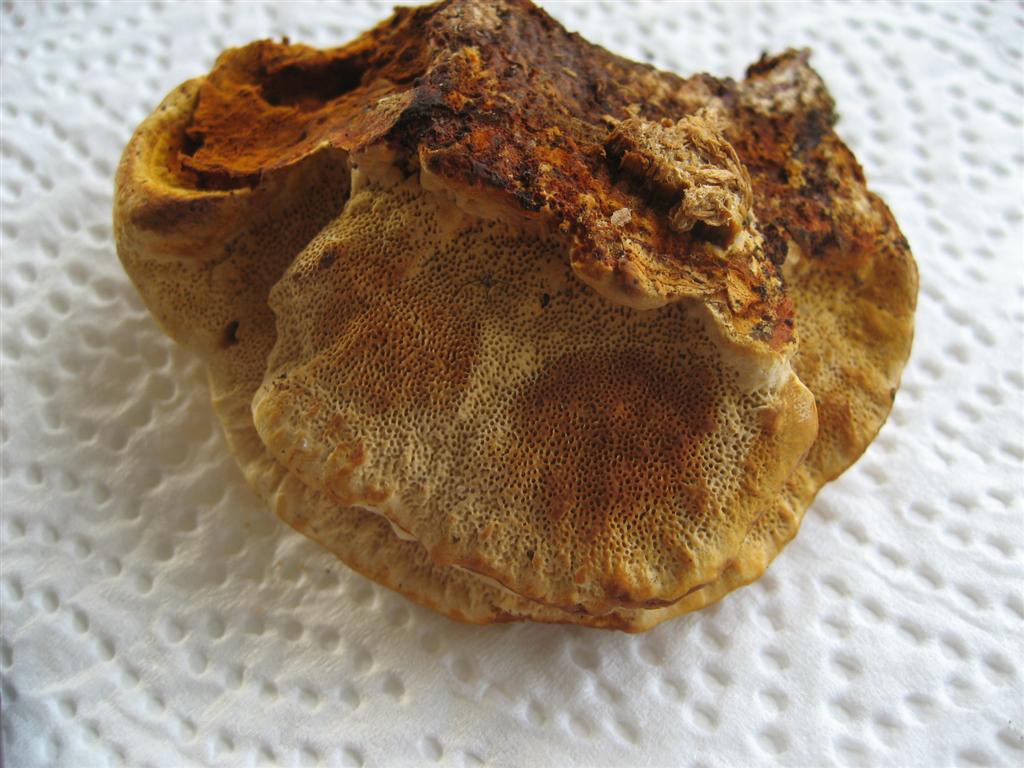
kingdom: Fungi
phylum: Basidiomycota
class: Agaricomycetes
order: Gloeophyllales
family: Gloeophyllaceae
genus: Gloeophyllum
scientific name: Gloeophyllum odoratum
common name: duftende korkhat
